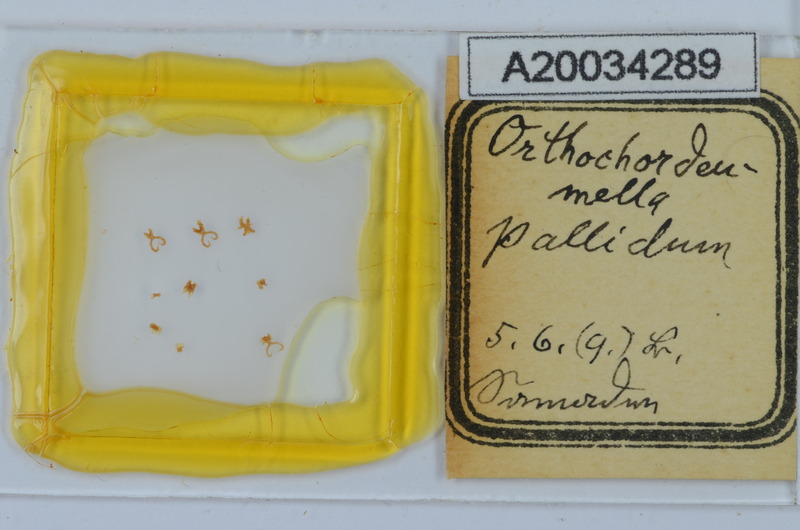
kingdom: Animalia
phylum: Arthropoda
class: Diplopoda
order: Chordeumatida
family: Chordeumatidae
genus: Orthochordeumella
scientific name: Orthochordeumella pallida
